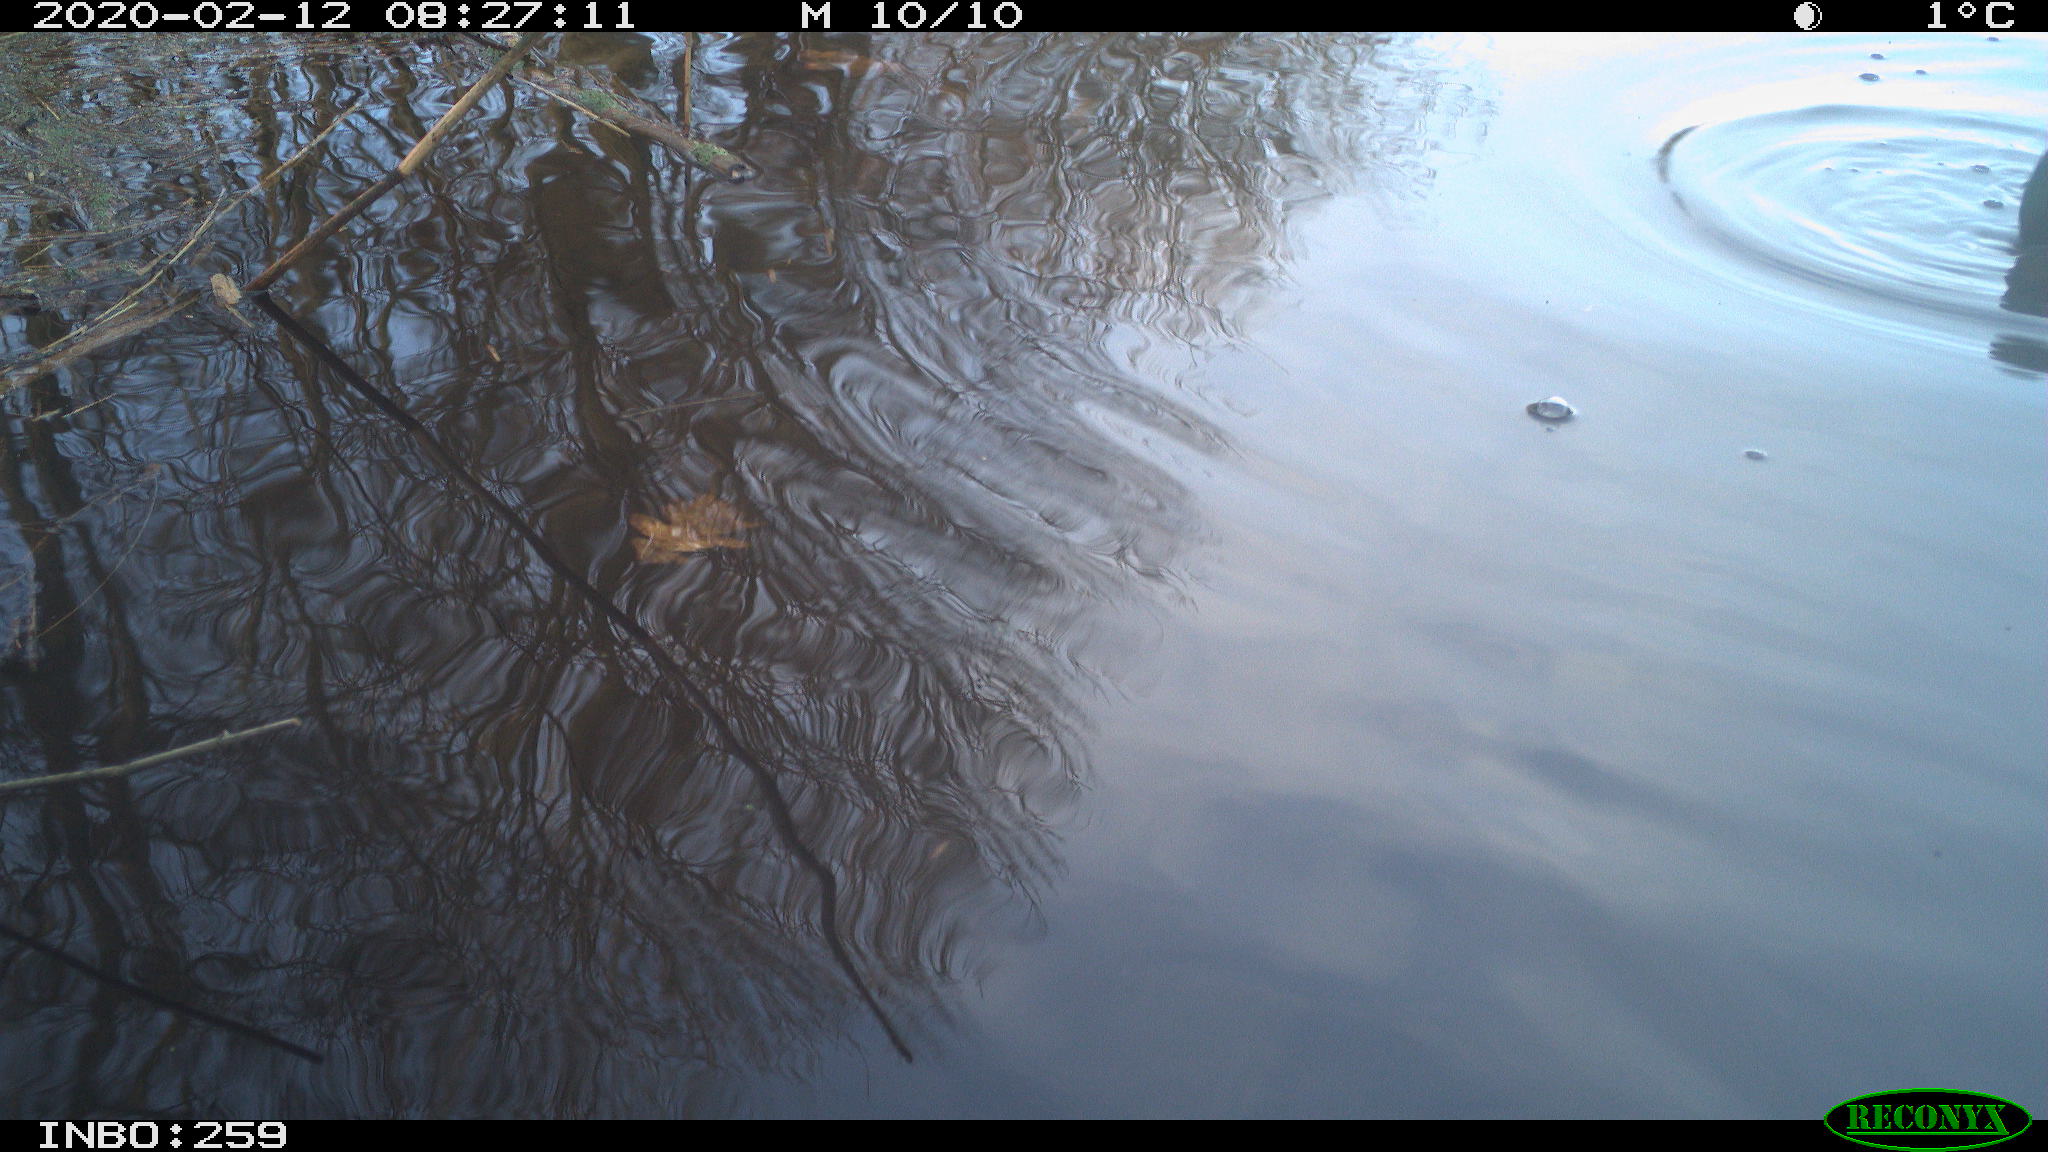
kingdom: Animalia
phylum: Chordata
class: Aves
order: Anseriformes
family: Anatidae
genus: Anas
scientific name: Anas platyrhynchos
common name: Mallard
